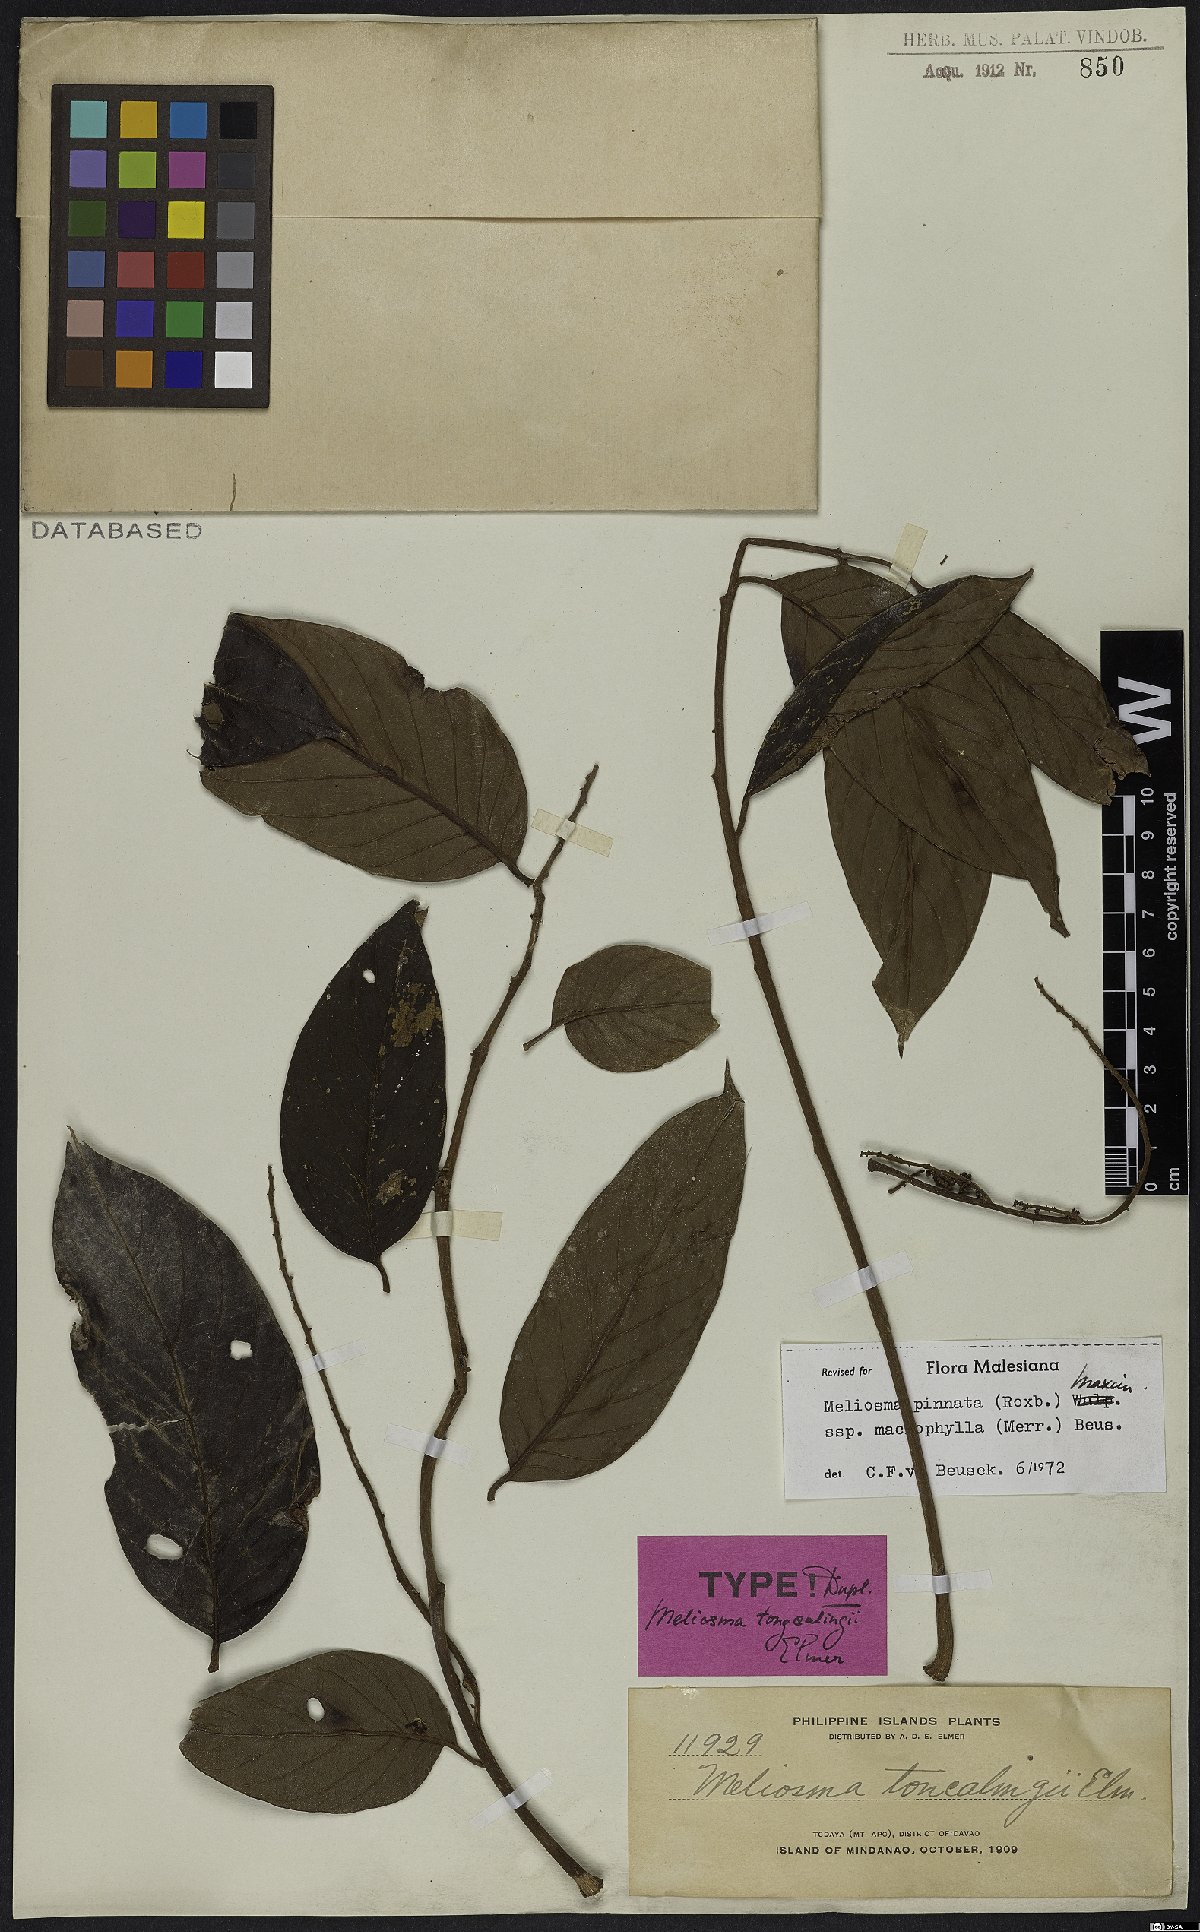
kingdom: Plantae
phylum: Tracheophyta
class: Magnoliopsida
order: Proteales
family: Sabiaceae
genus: Meliosma
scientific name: Meliosma pinnata
